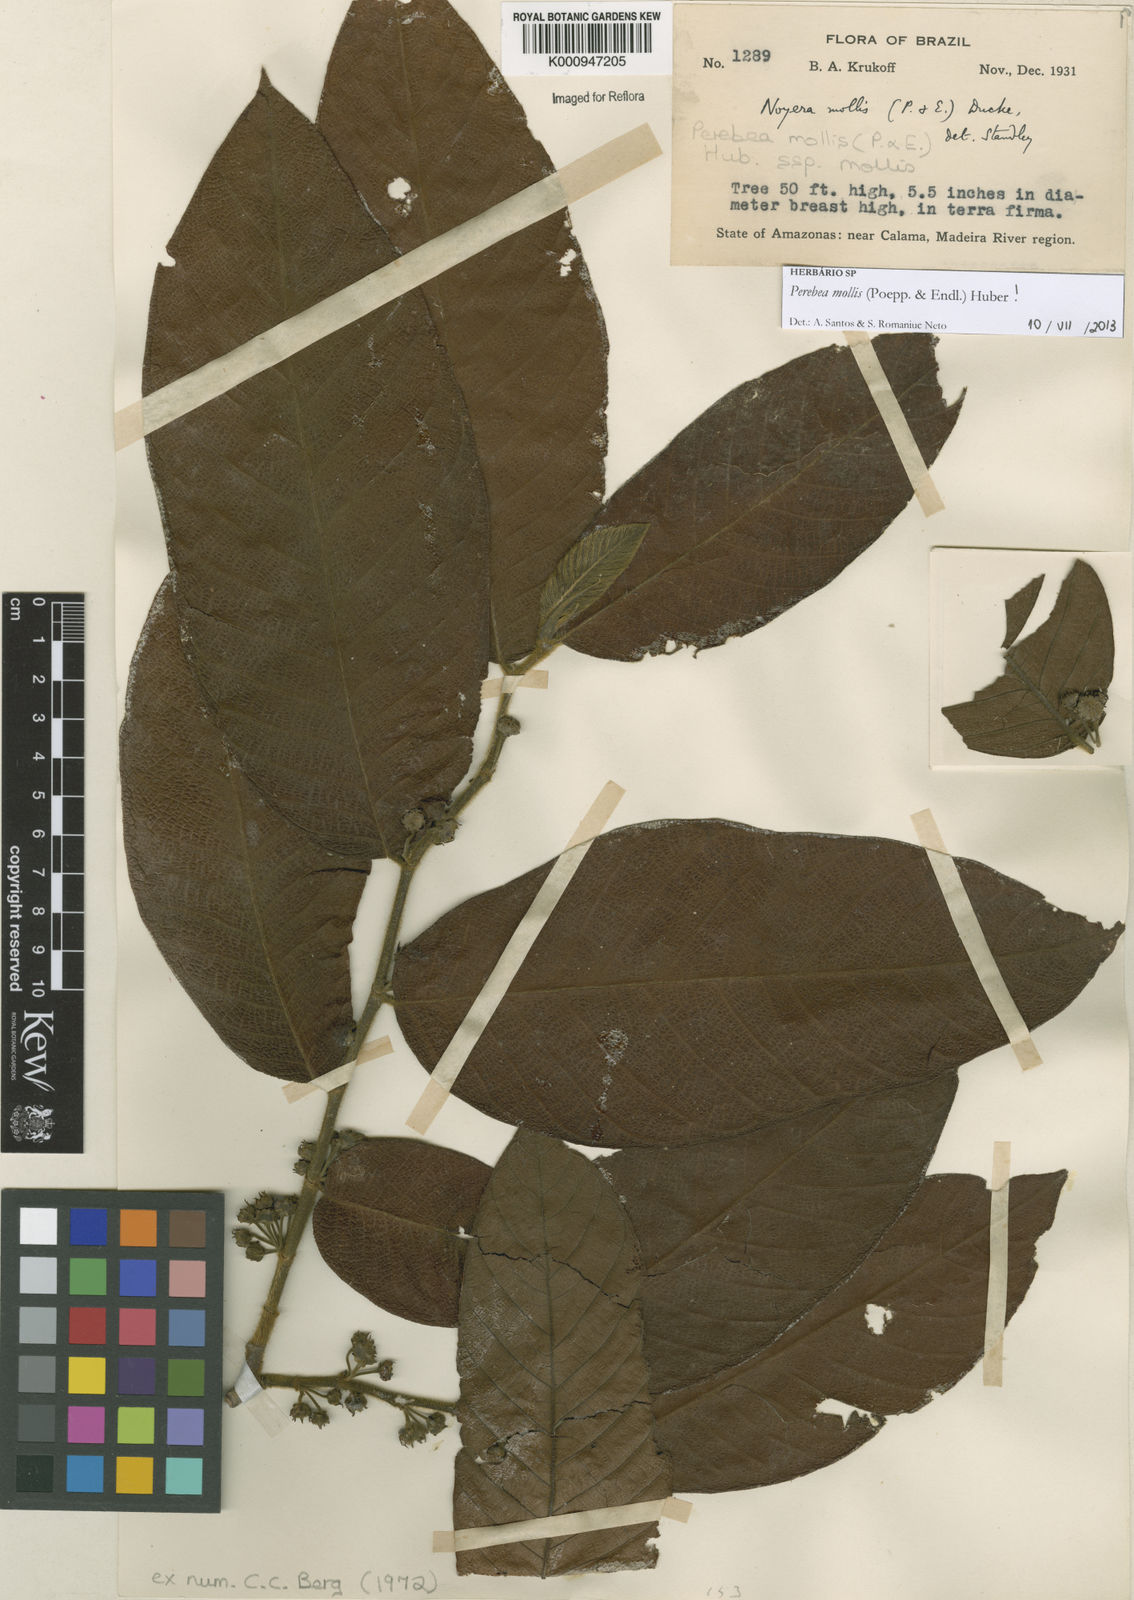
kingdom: Plantae
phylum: Tracheophyta
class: Magnoliopsida
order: Rosales
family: Moraceae
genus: Perebea
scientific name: Perebea mollis
